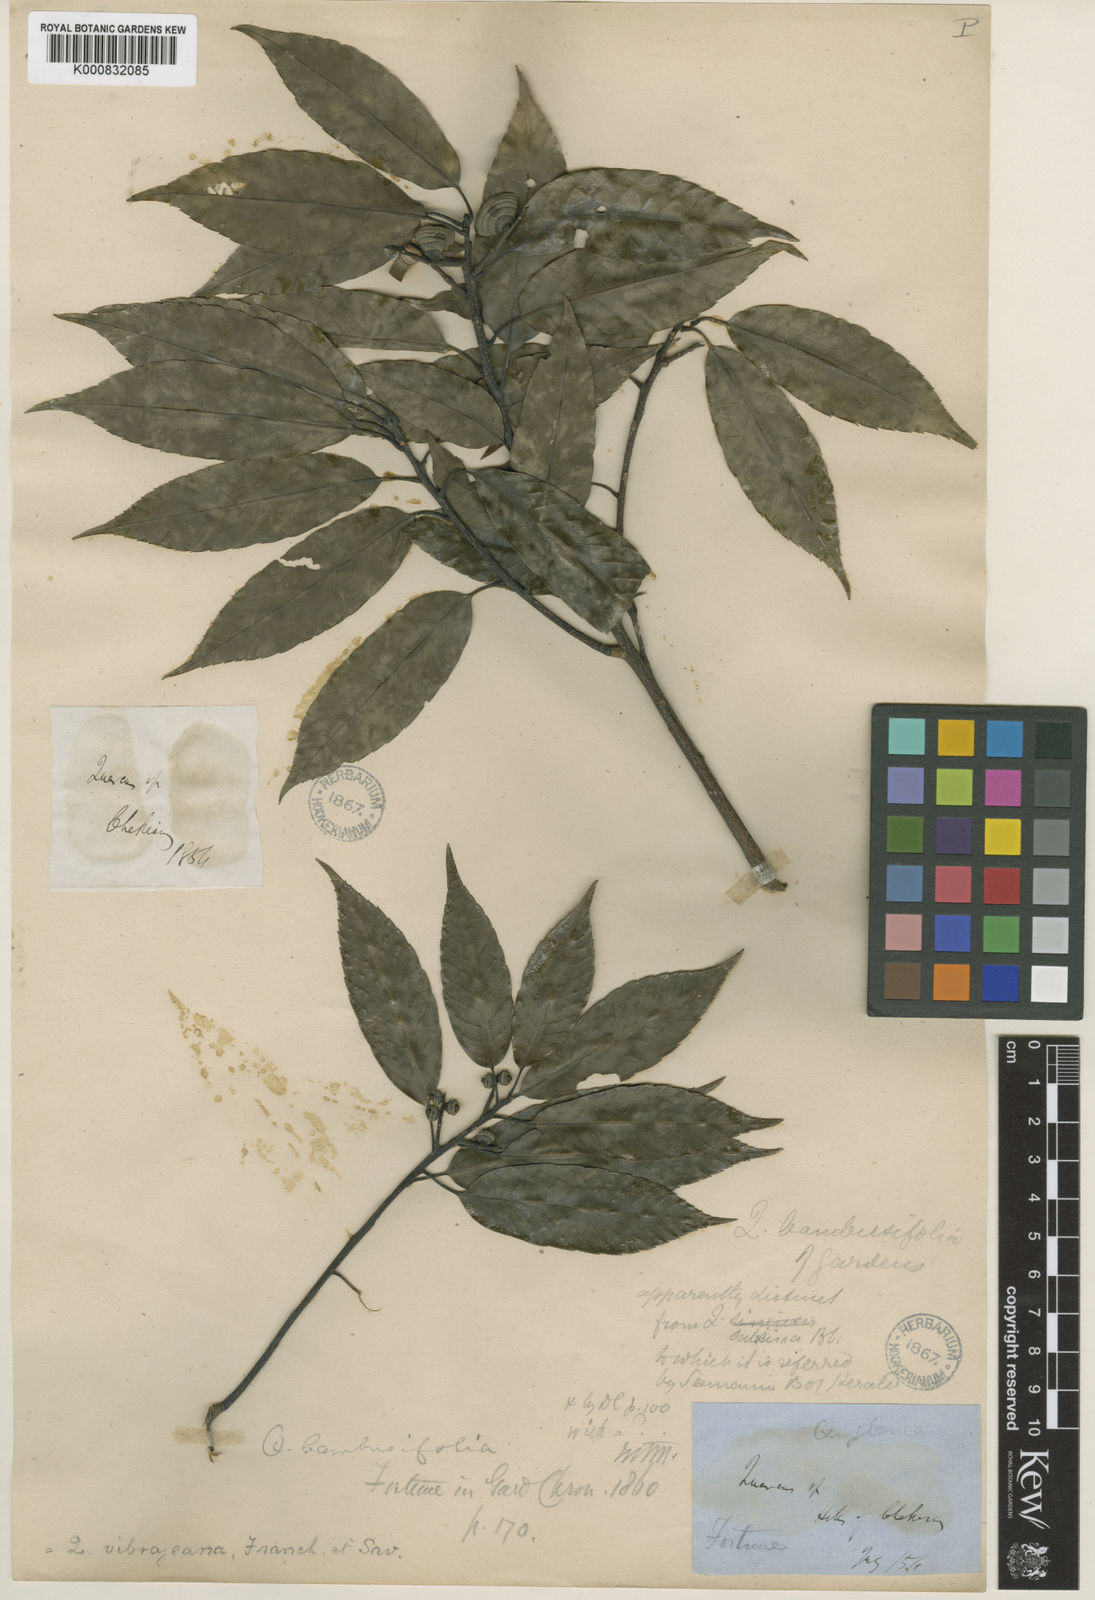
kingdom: Plantae
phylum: Tracheophyta
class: Magnoliopsida
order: Fagales
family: Fagaceae
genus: Quercus
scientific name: Quercus myrsinifolia
